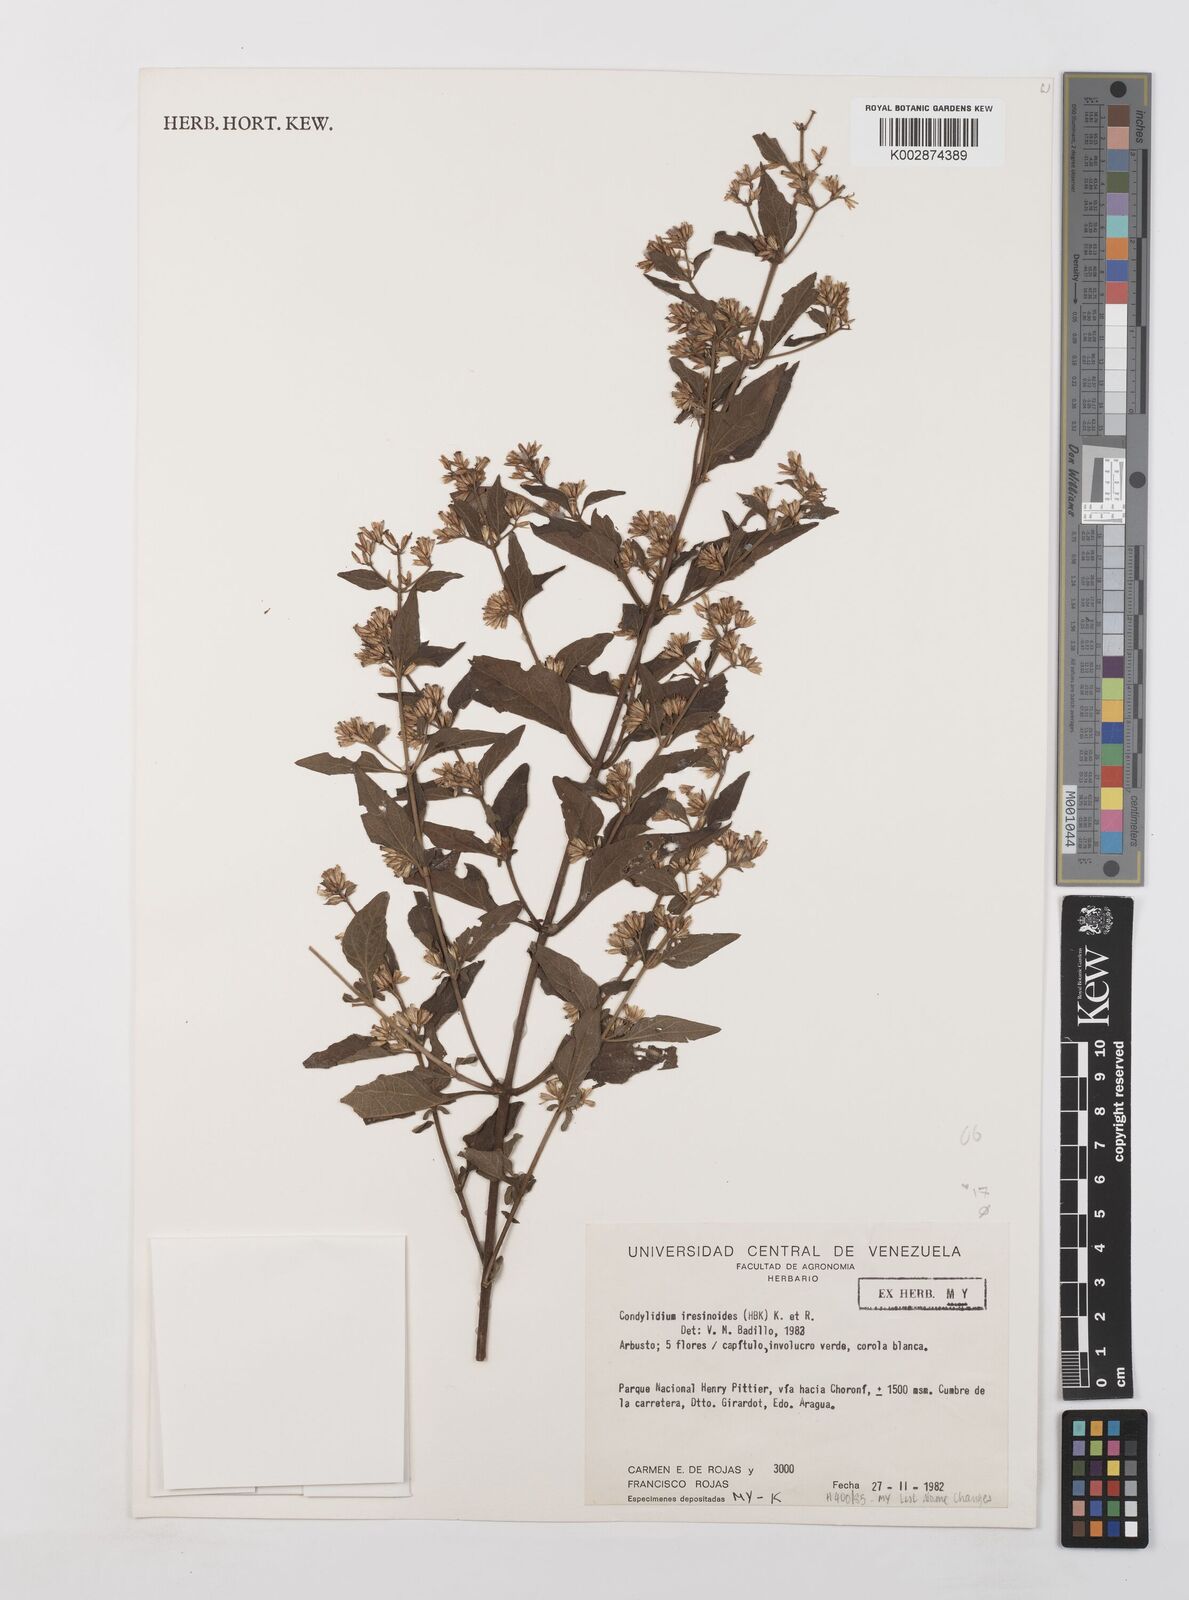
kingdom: Plantae
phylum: Tracheophyta
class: Magnoliopsida
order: Asterales
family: Asteraceae
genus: Condylidium
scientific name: Condylidium iresinoides
